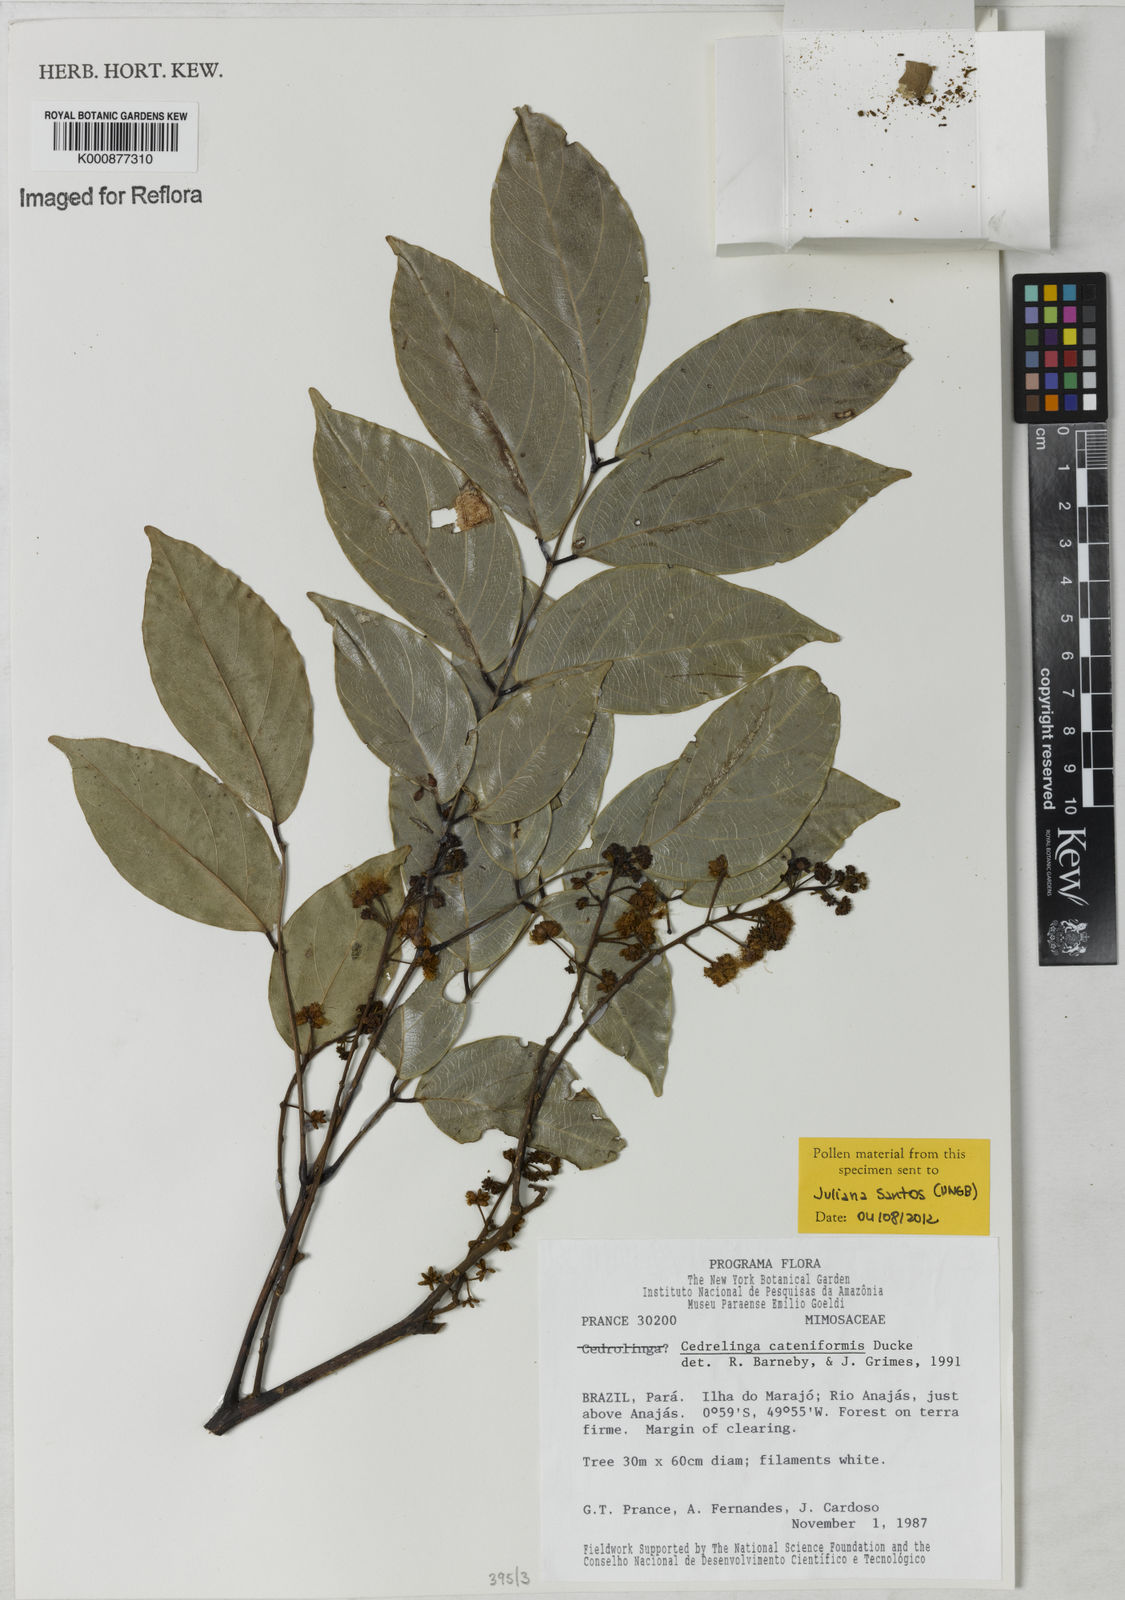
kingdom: Plantae
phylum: Tracheophyta
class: Magnoliopsida
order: Fabales
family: Fabaceae
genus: Cedrelinga
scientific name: Cedrelinga cateniformis
